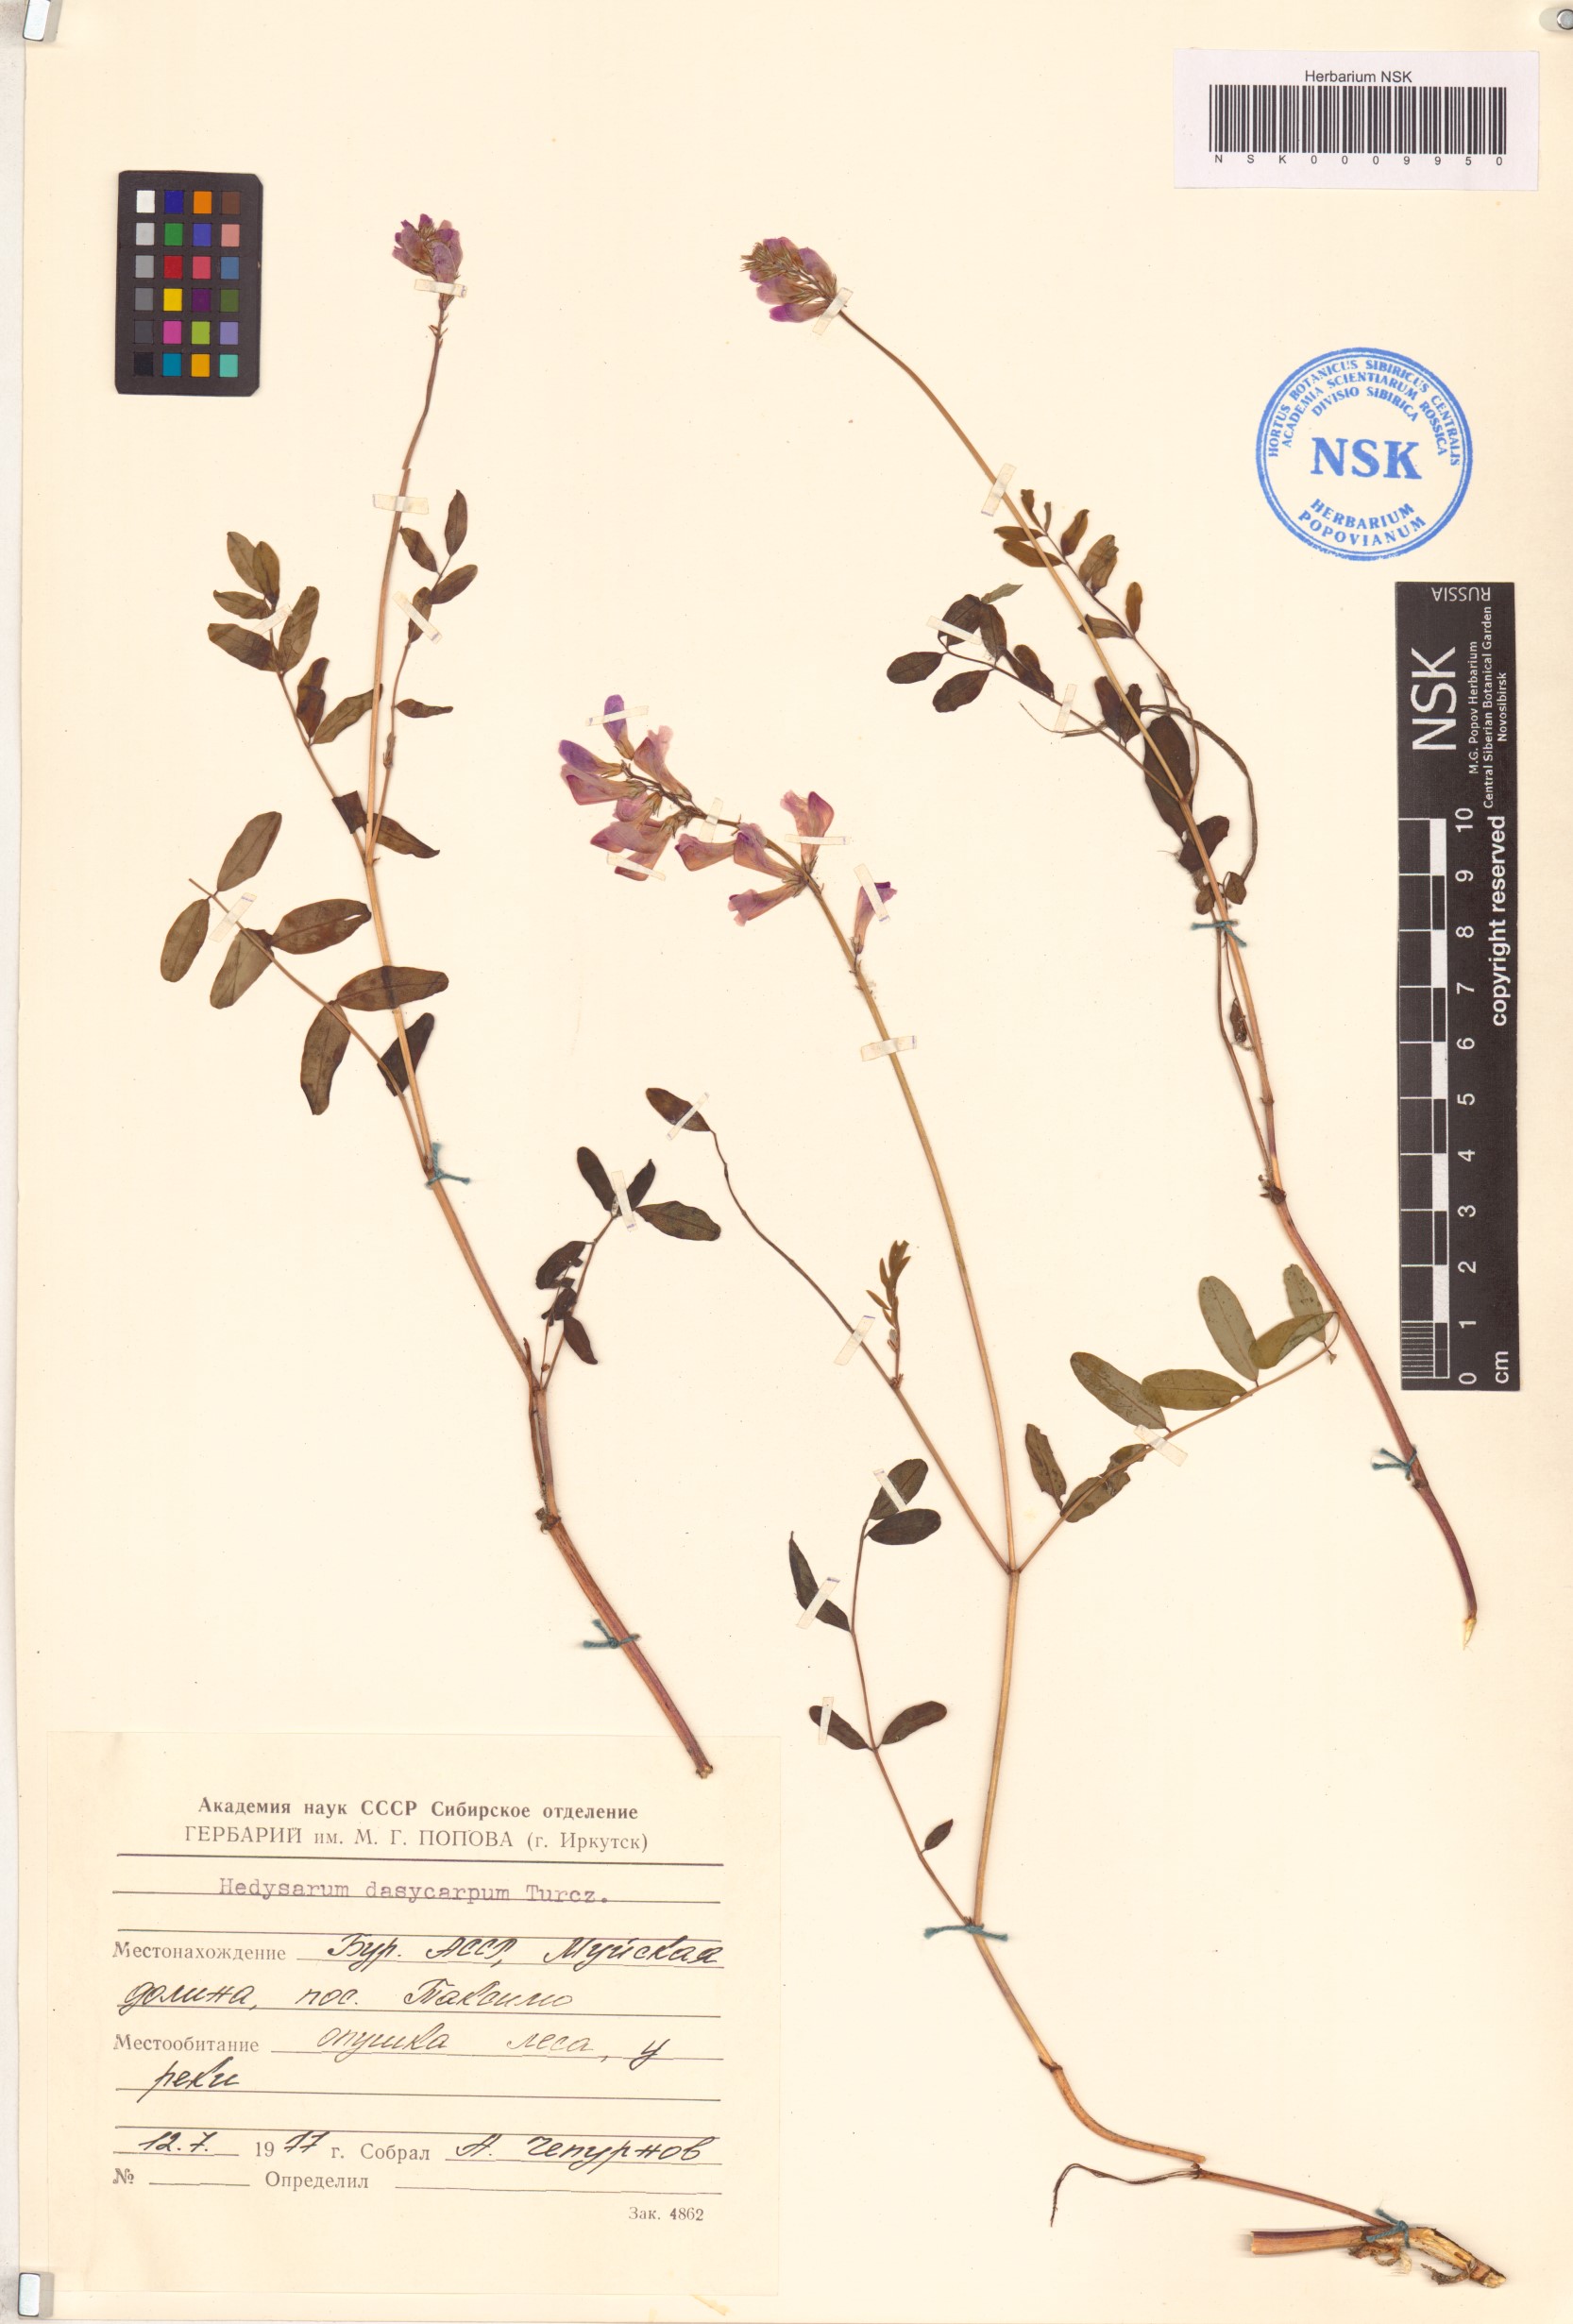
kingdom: Plantae
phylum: Tracheophyta
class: Magnoliopsida
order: Fabales
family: Fabaceae
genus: Hedysarum
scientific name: Hedysarum dasycarpum
